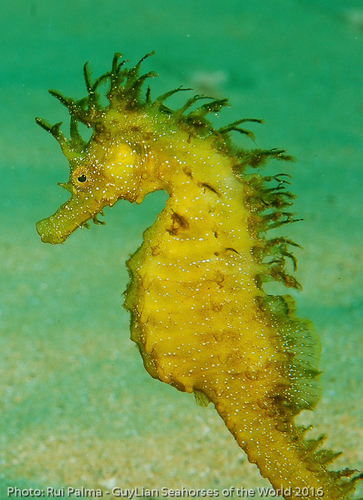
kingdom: Animalia
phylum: Chordata
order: Syngnathiformes
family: Syngnathidae
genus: Hippocampus
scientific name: Hippocampus guttulatus
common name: Long-snouted seahorse
